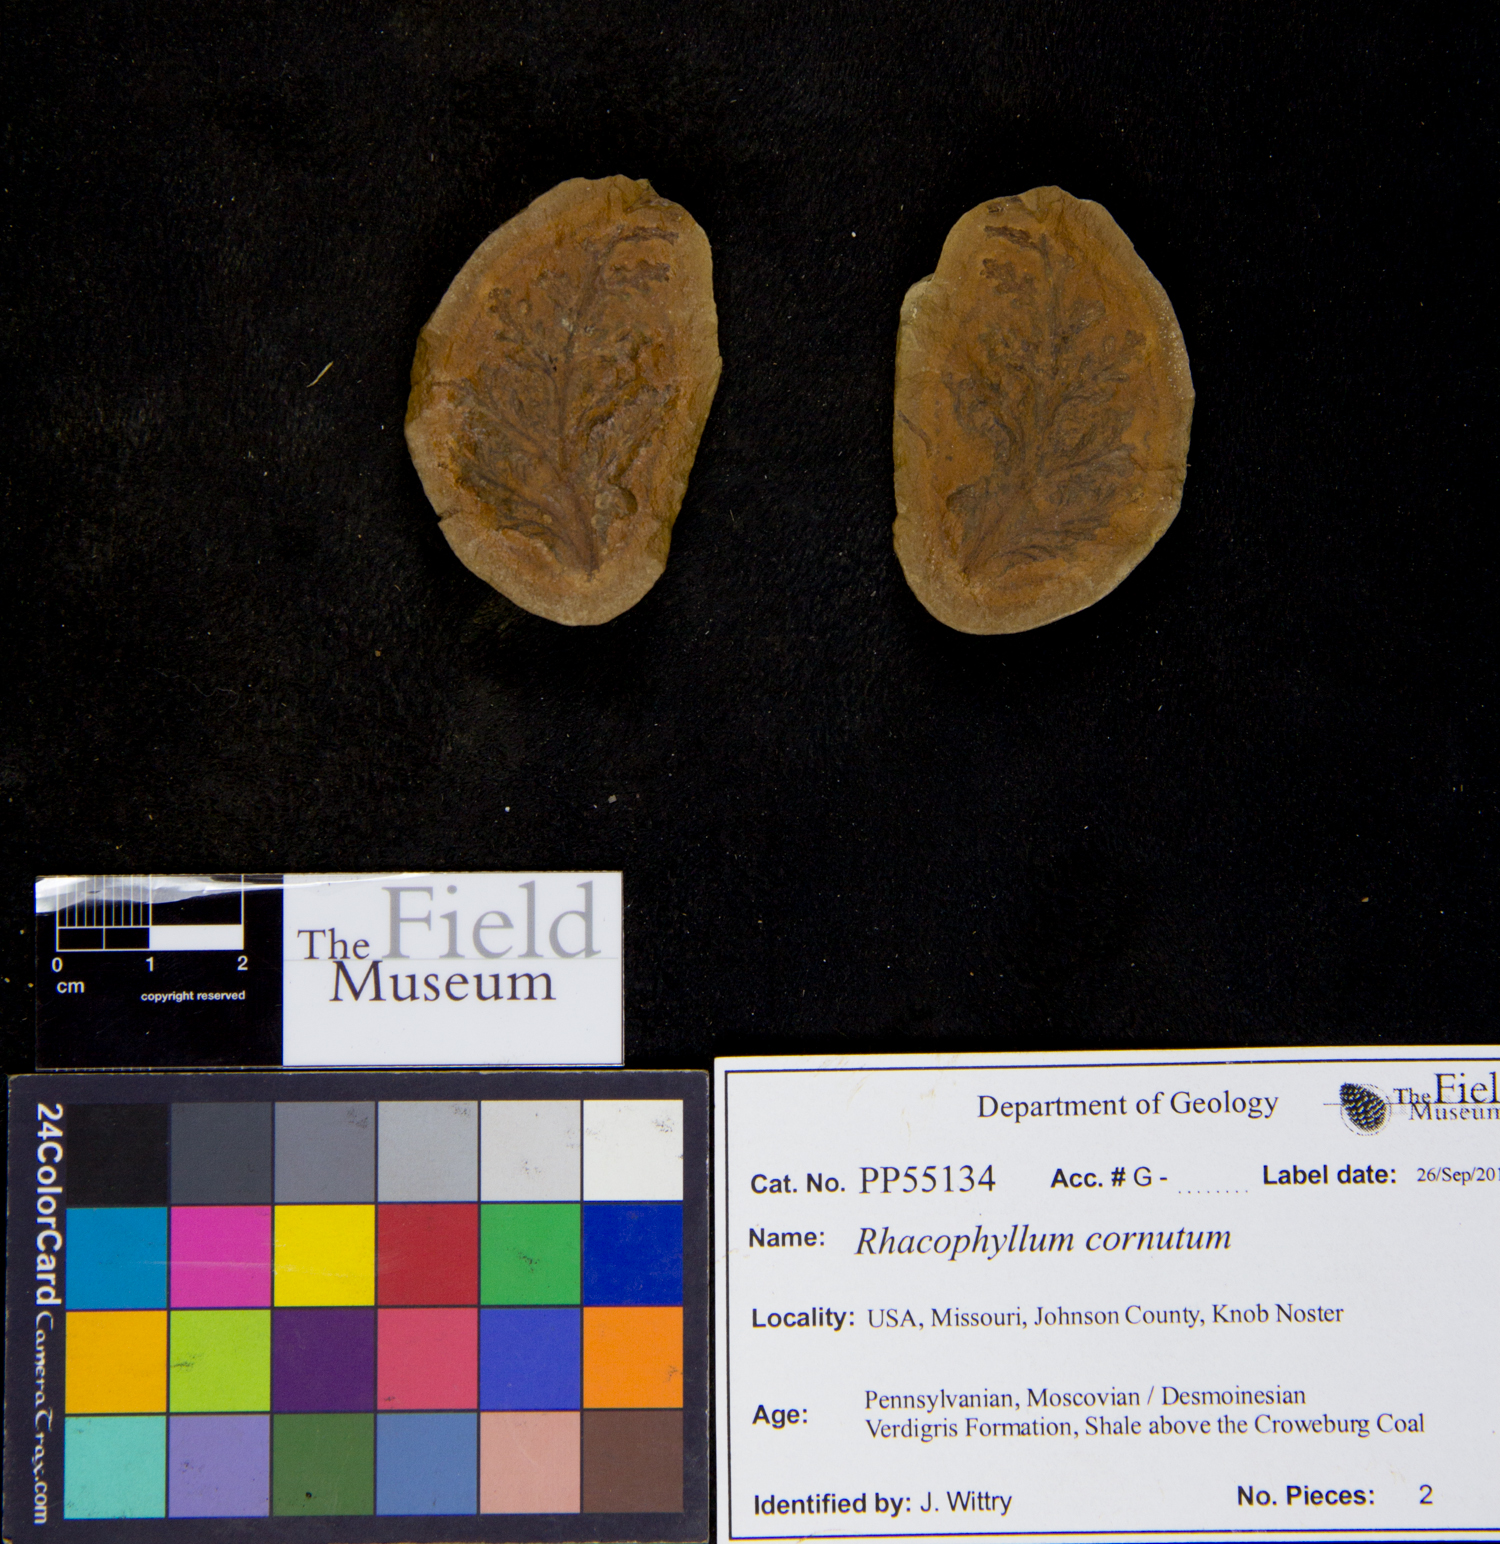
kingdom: Plantae
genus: Rhacophyllum
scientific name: Rhacophyllum
